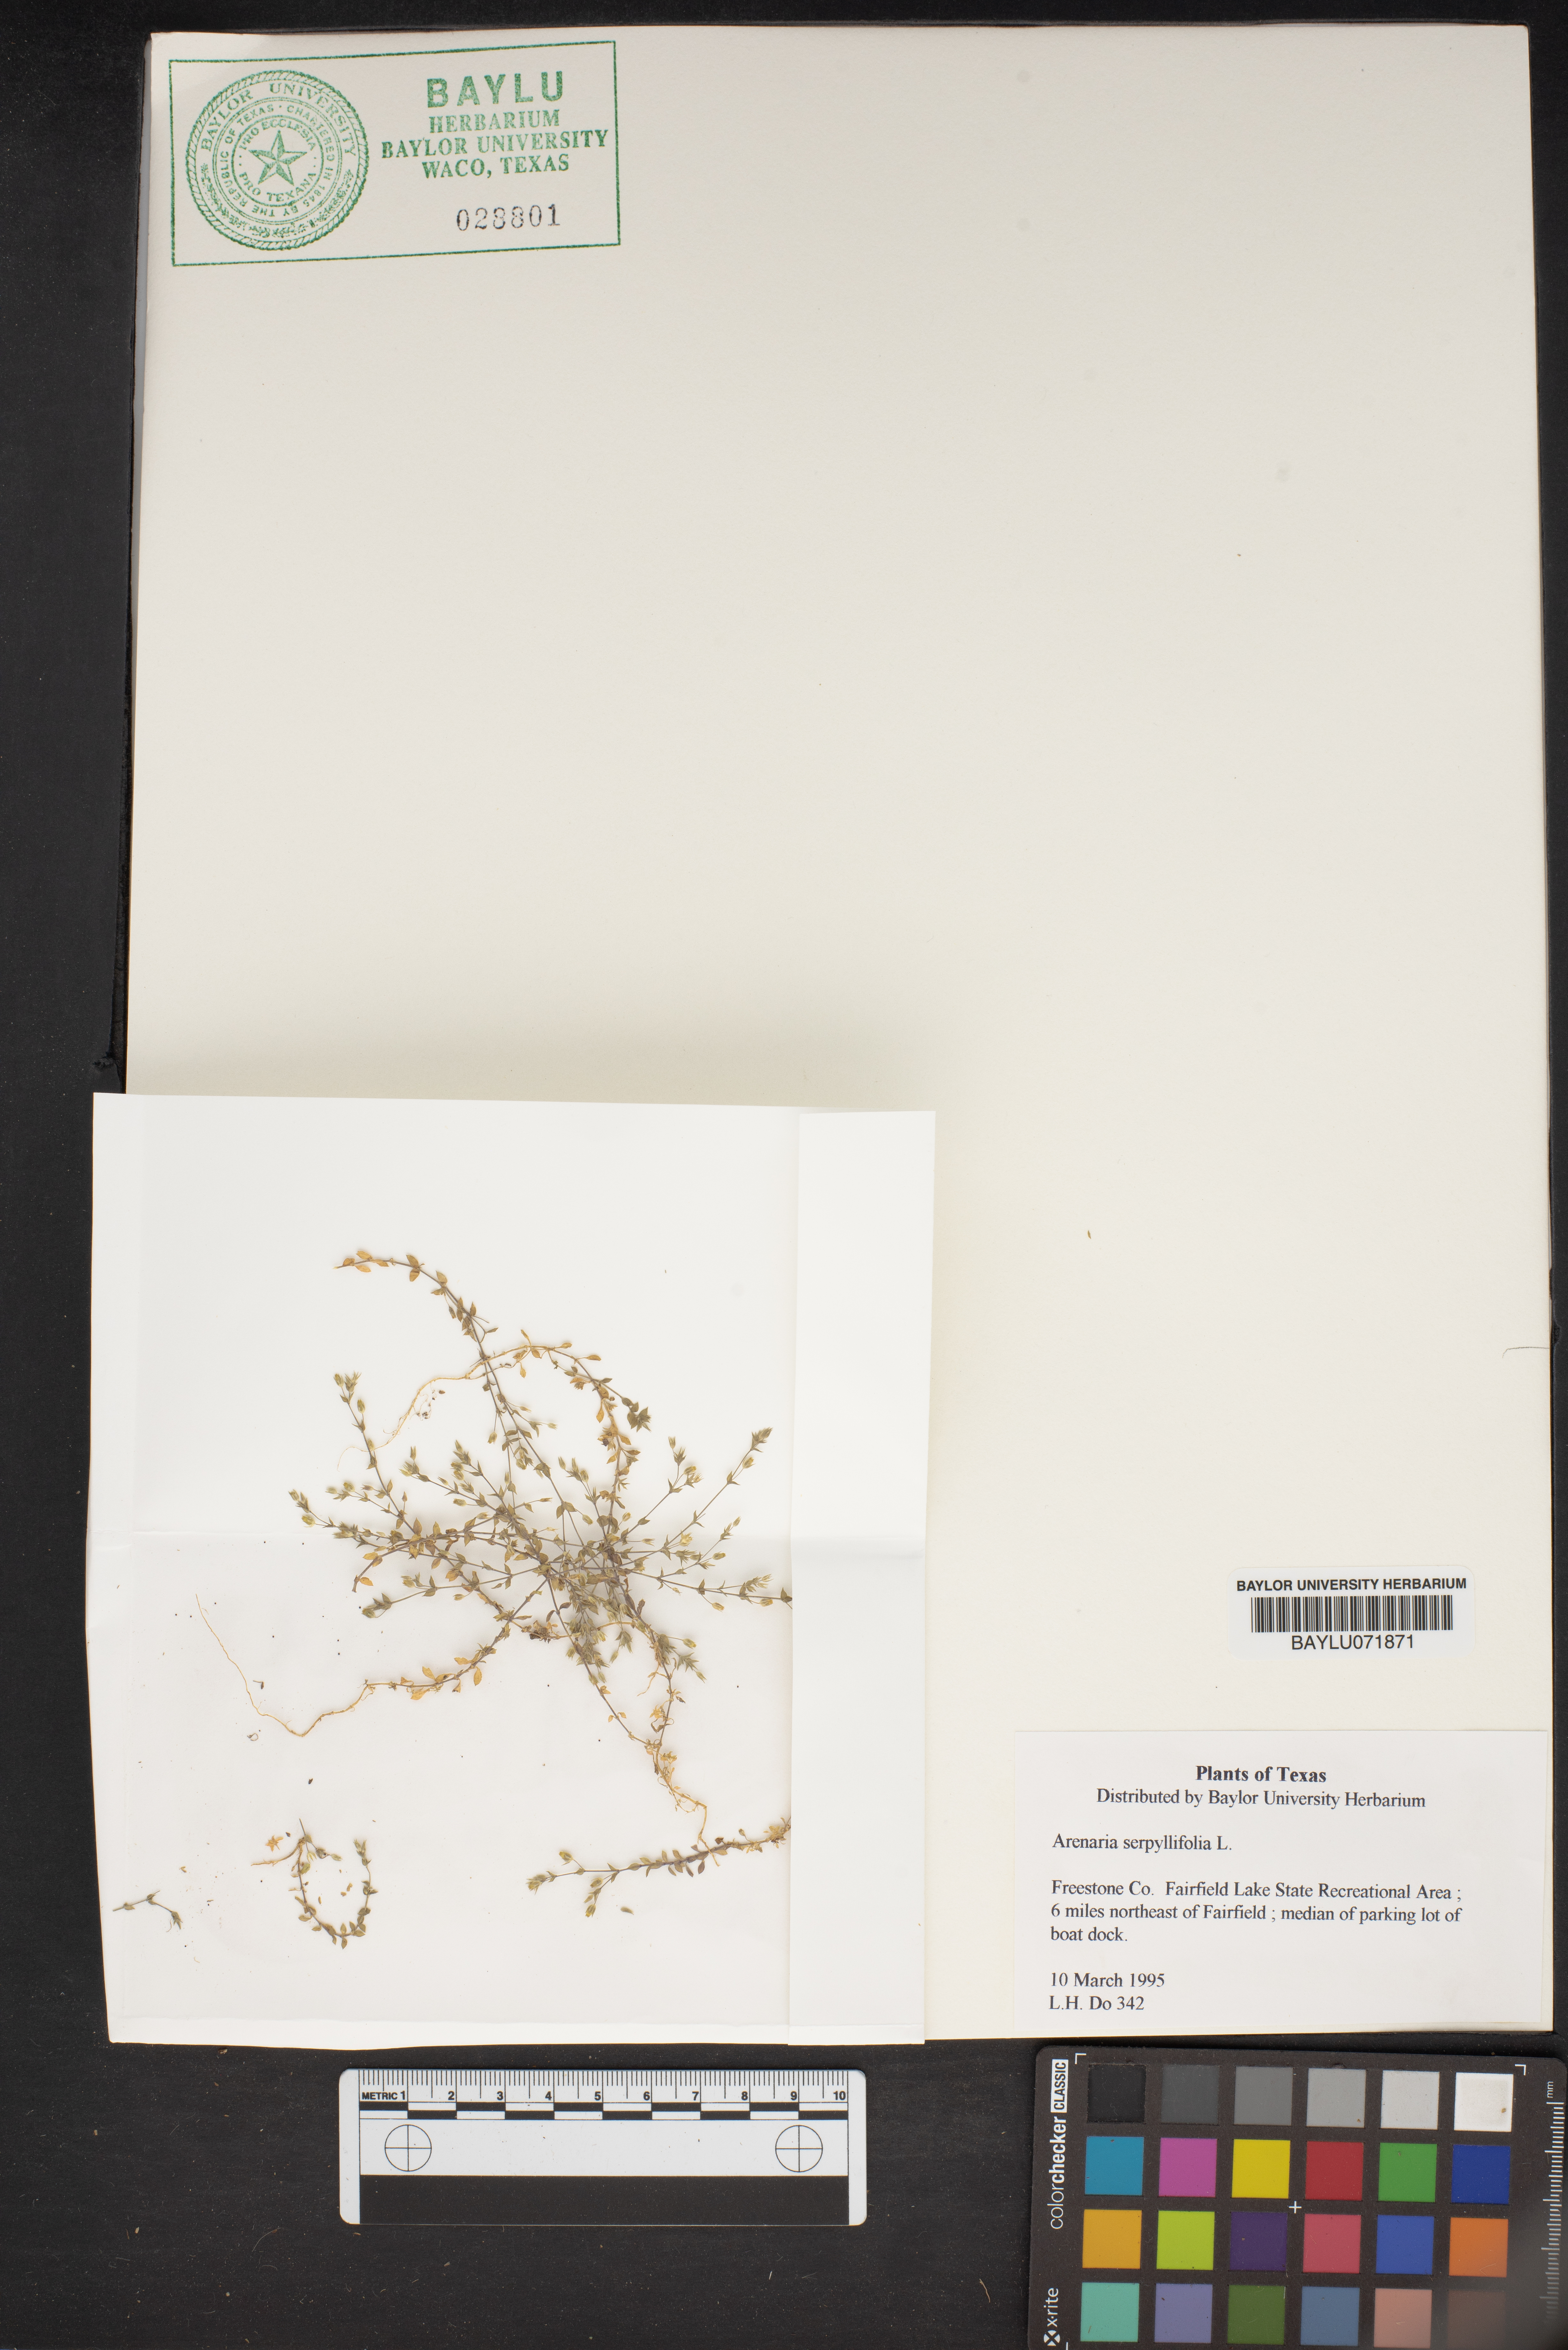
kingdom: Plantae
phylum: Tracheophyta
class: Magnoliopsida
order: Caryophyllales
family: Caryophyllaceae
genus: Arenaria
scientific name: Arenaria serpyllifolia
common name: Thyme-leaved sandwort
